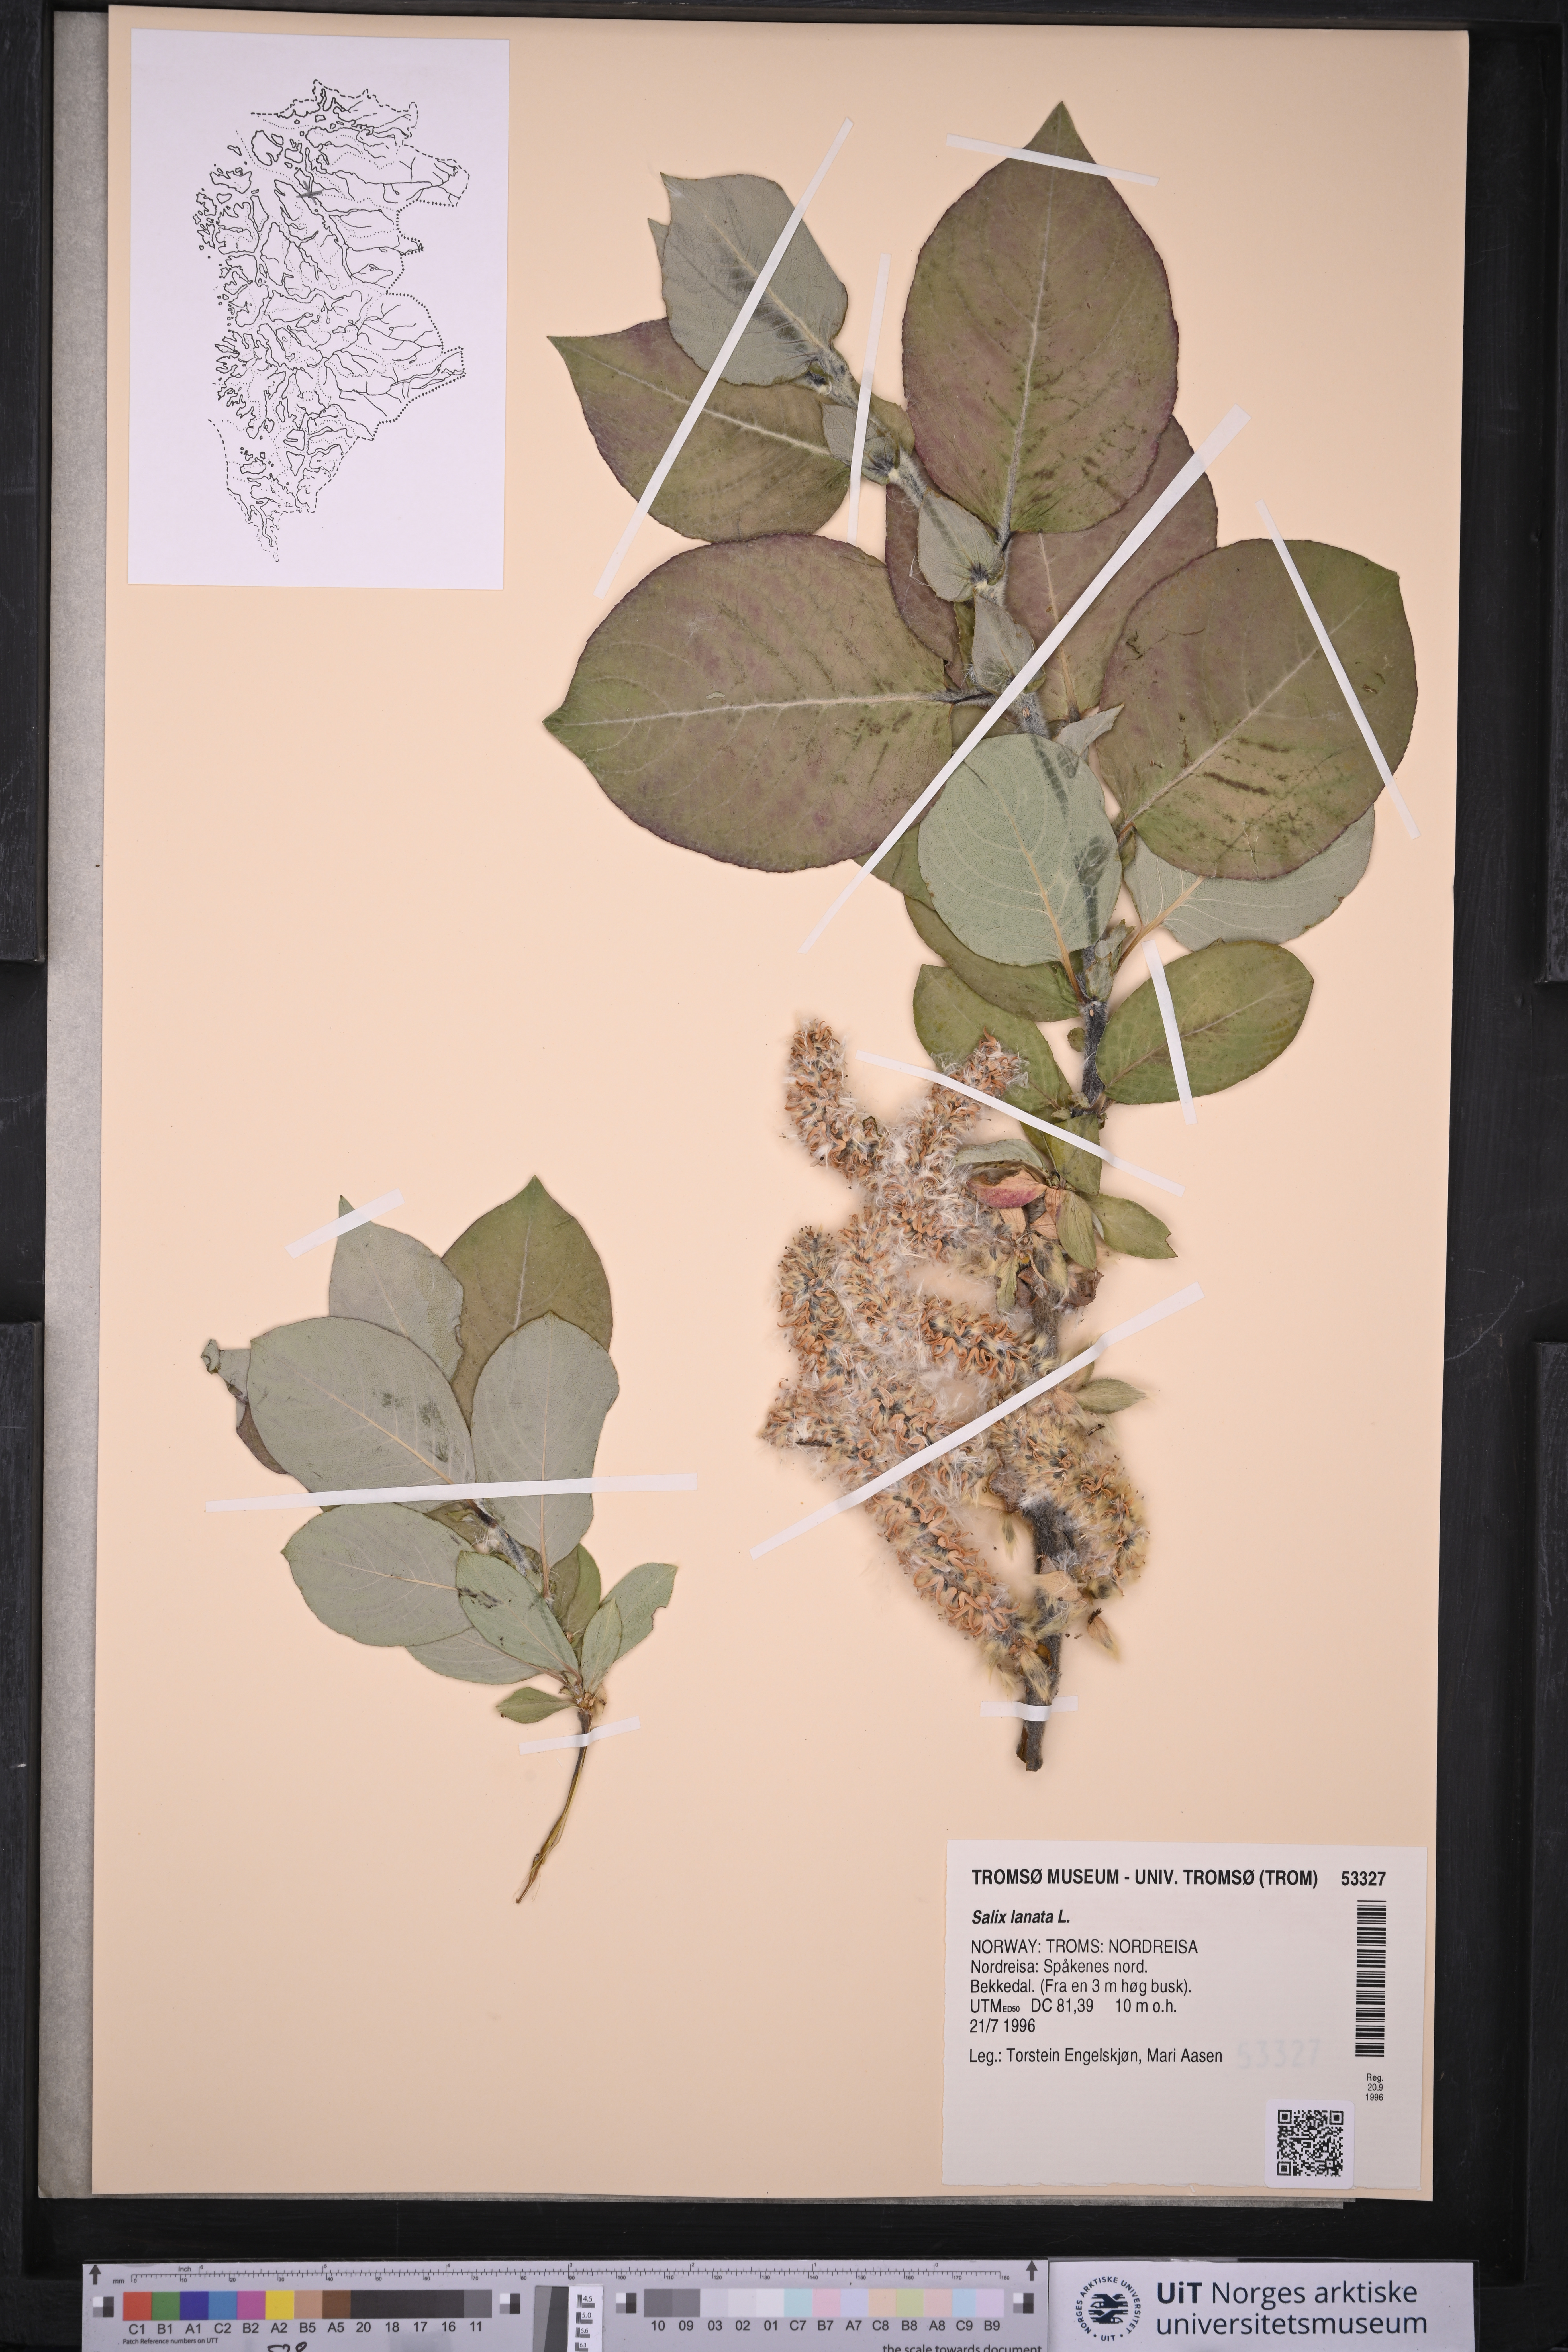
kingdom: Plantae
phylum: Tracheophyta
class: Magnoliopsida
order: Malpighiales
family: Salicaceae
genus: Salix
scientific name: Salix lanata
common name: Woolly willow
